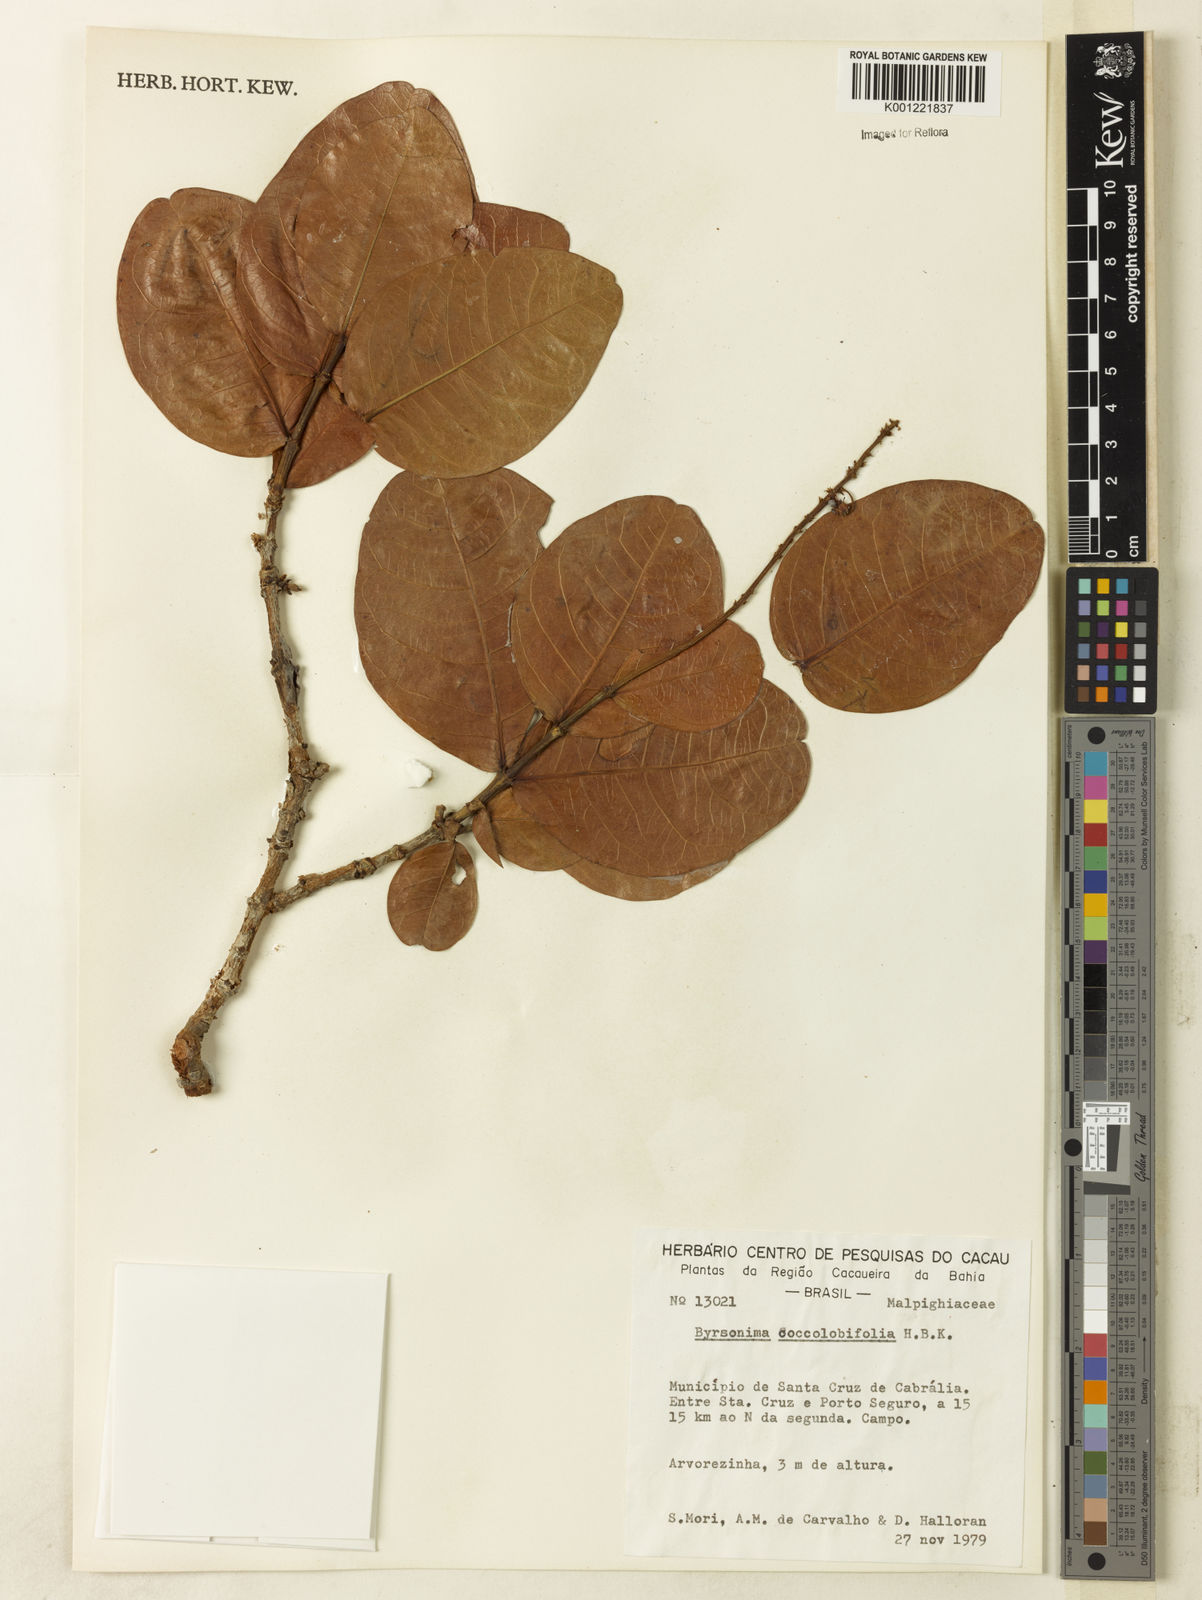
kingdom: Plantae
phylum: Tracheophyta
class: Magnoliopsida
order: Malpighiales
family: Malpighiaceae
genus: Byrsonima
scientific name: Byrsonima coccolobifolia
